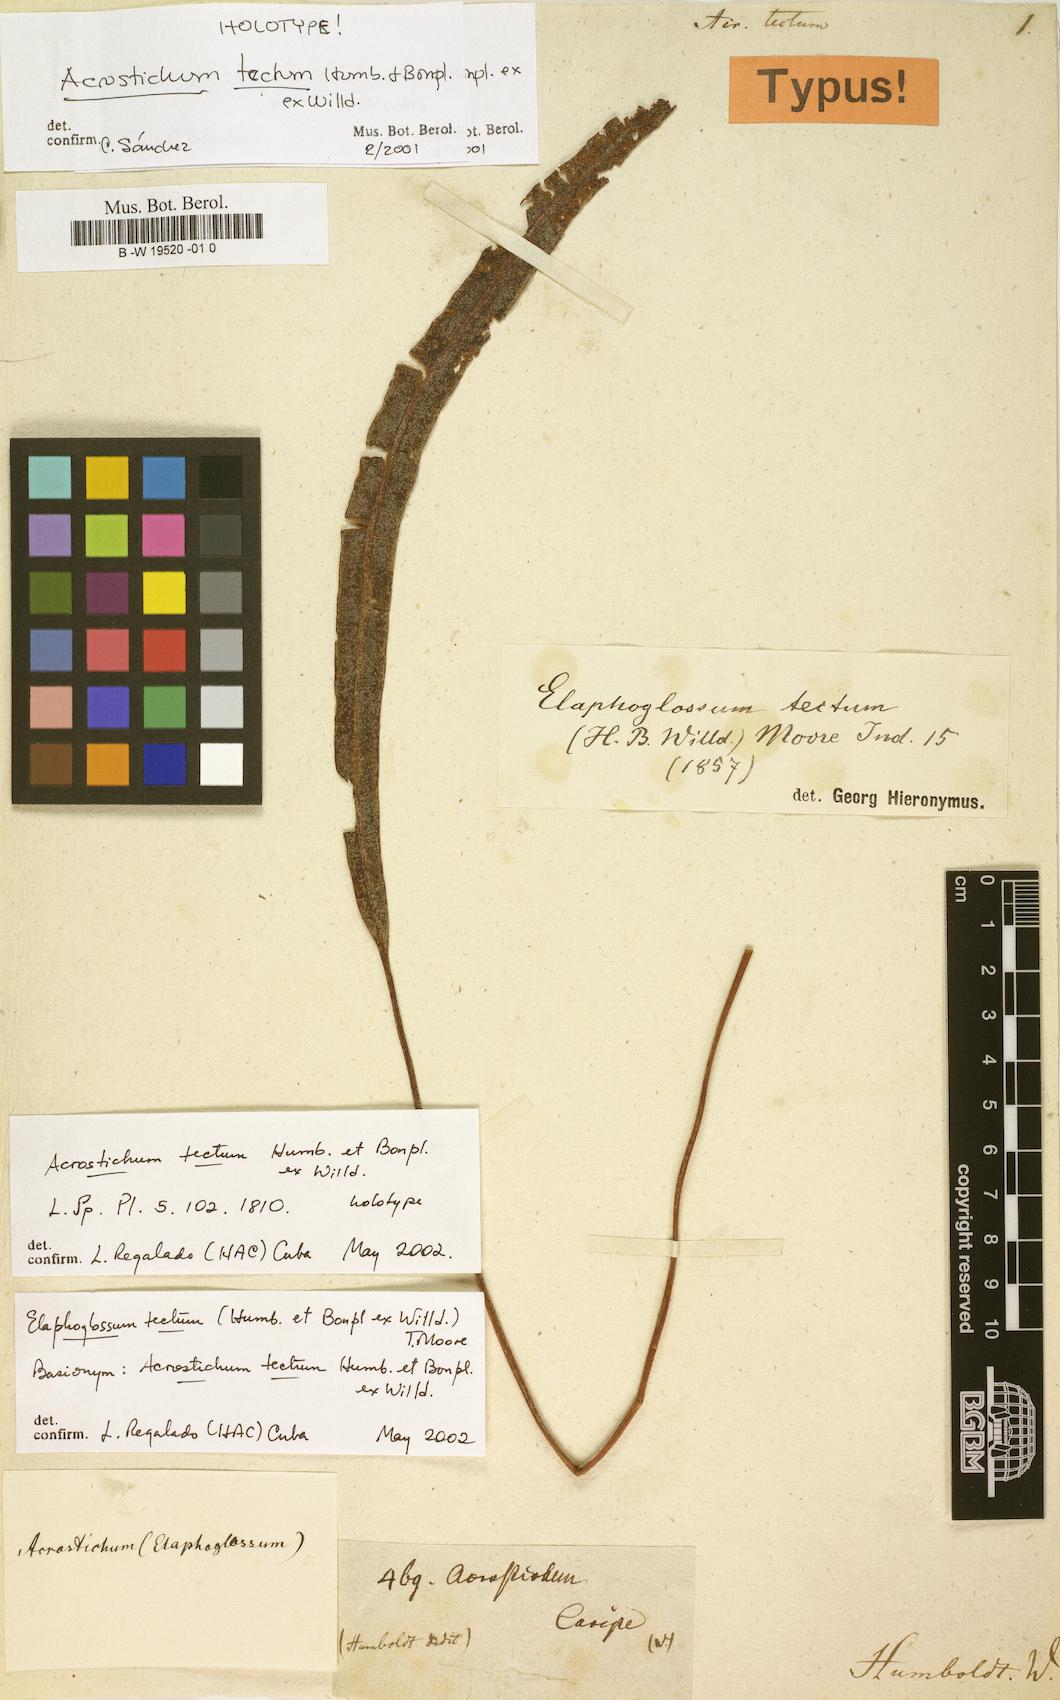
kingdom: Plantae
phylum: Tracheophyta
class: Polypodiopsida
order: Polypodiales
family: Dryopteridaceae
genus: Elaphoglossum
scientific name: Elaphoglossum tectum
